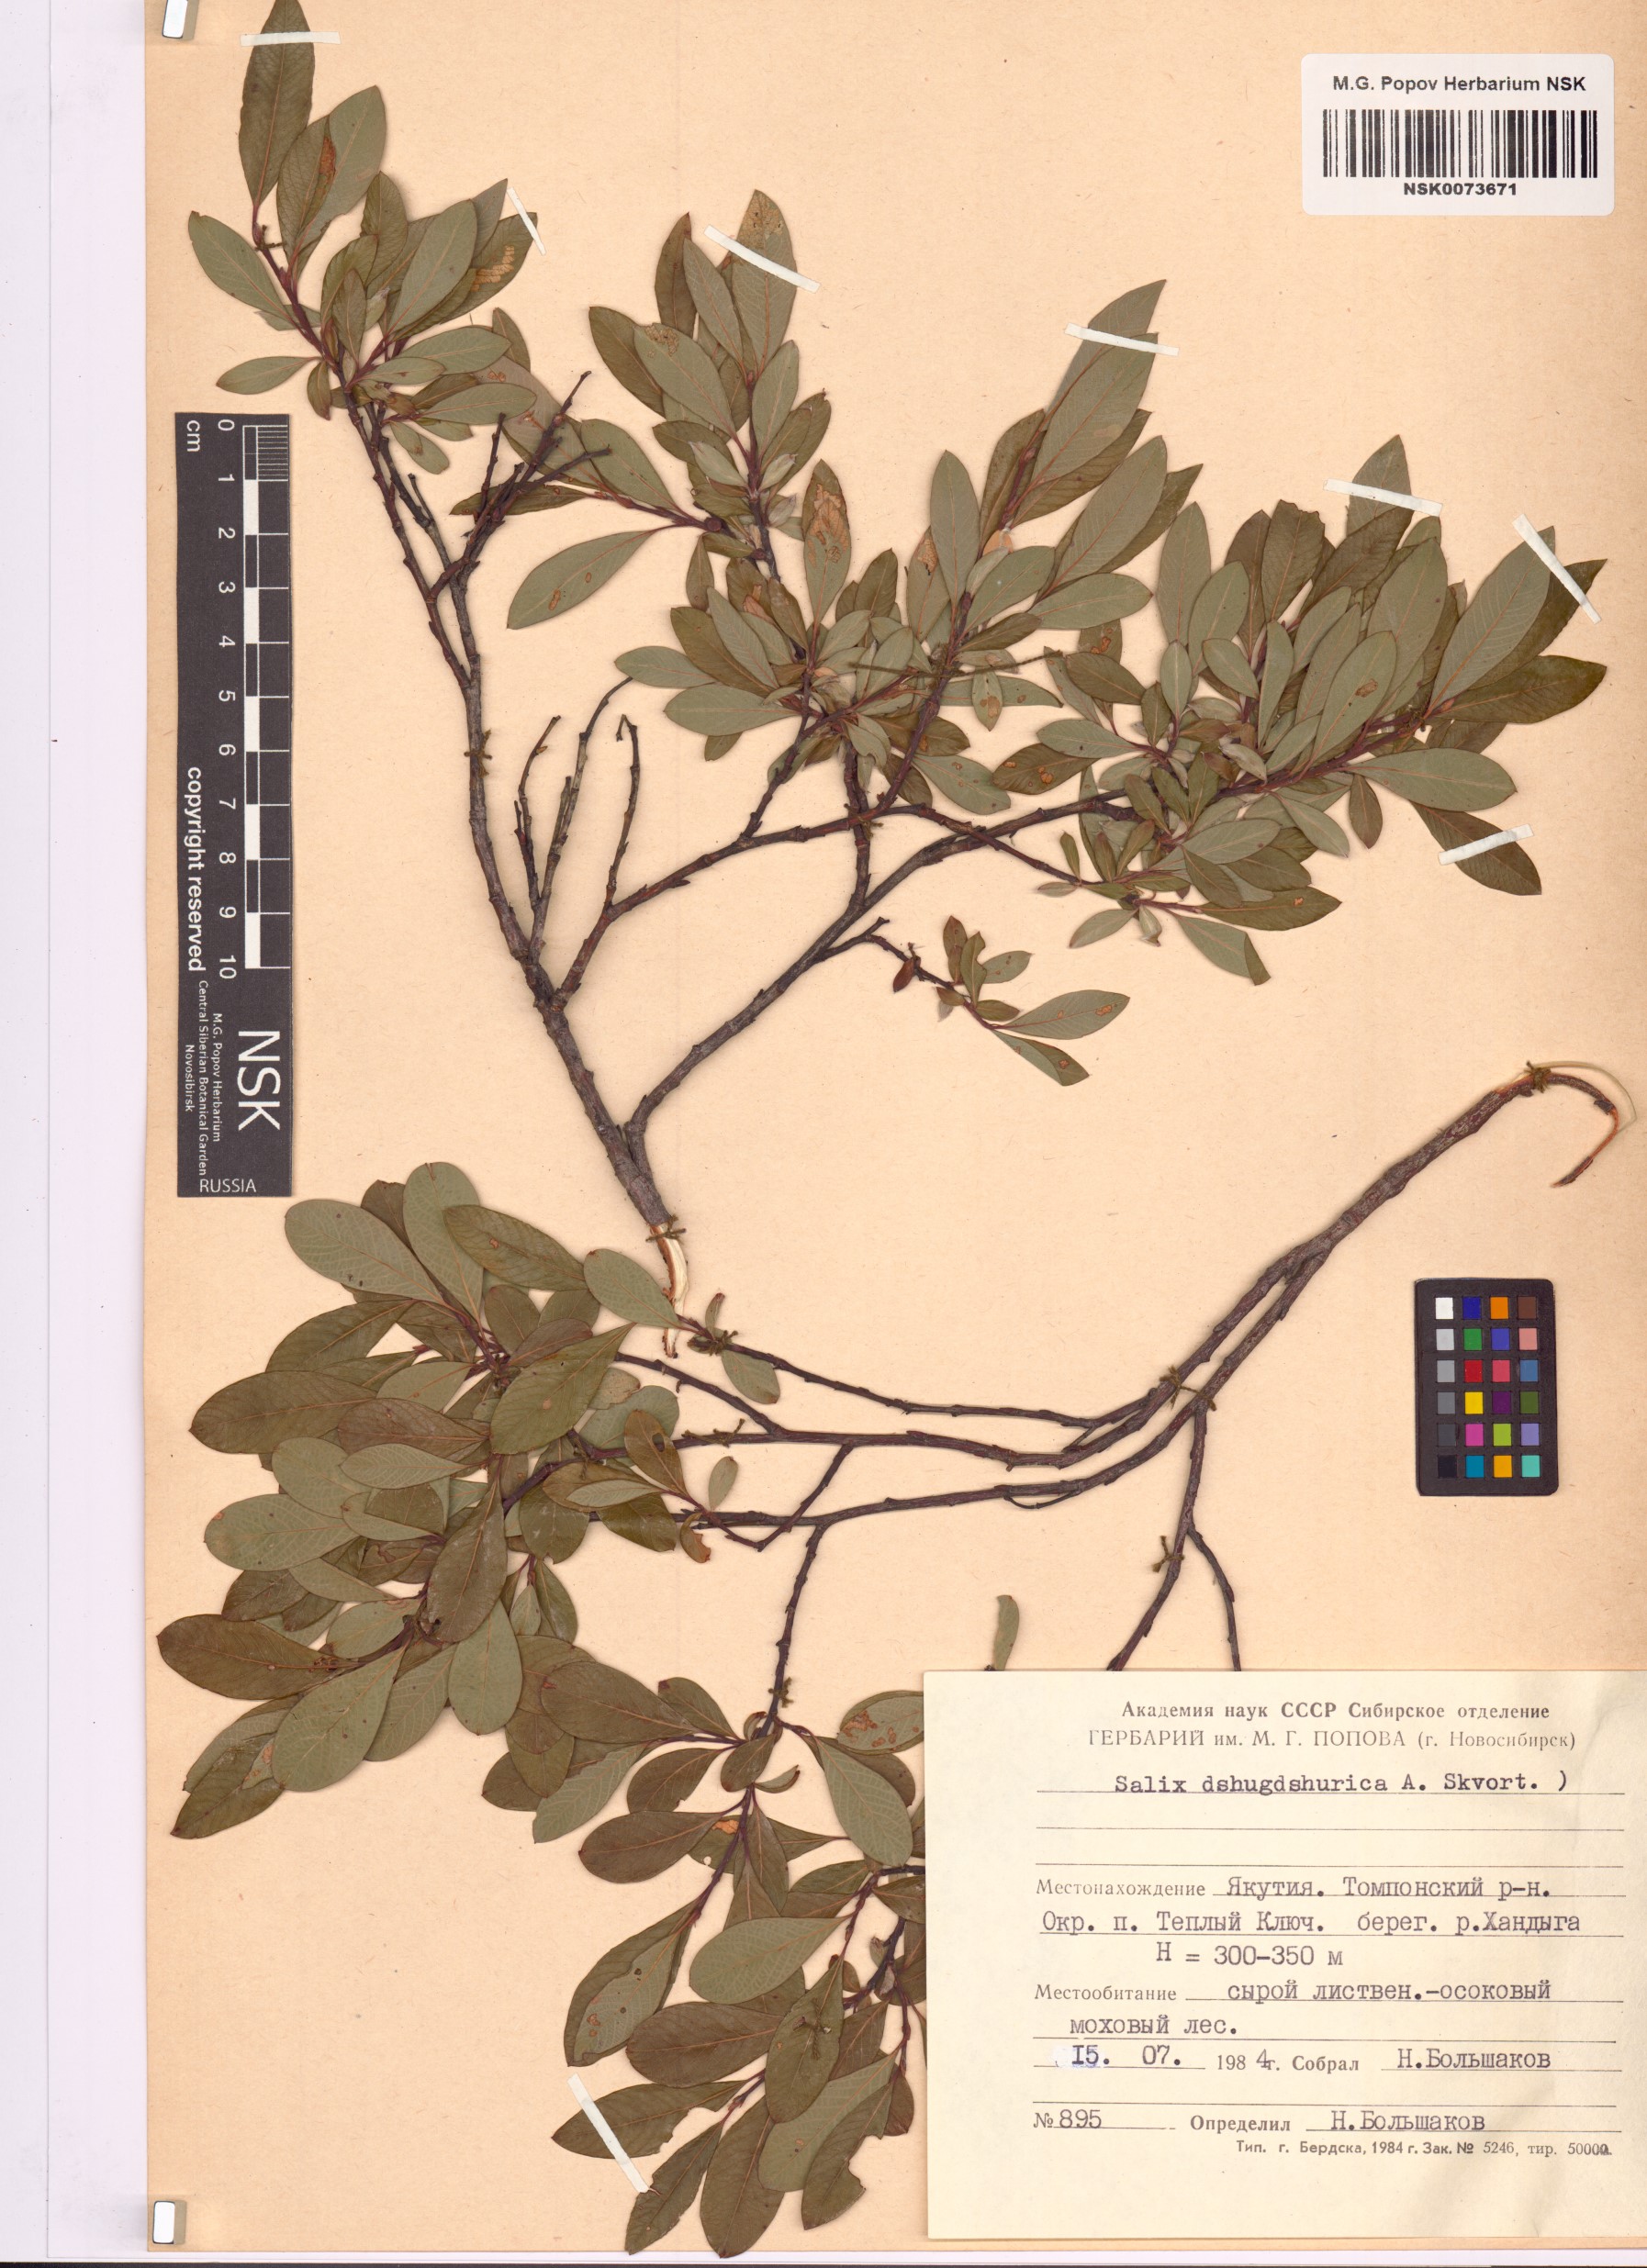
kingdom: Plantae
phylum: Tracheophyta
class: Magnoliopsida
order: Malpighiales
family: Salicaceae
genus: Salix
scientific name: Salix dshugdshurica
